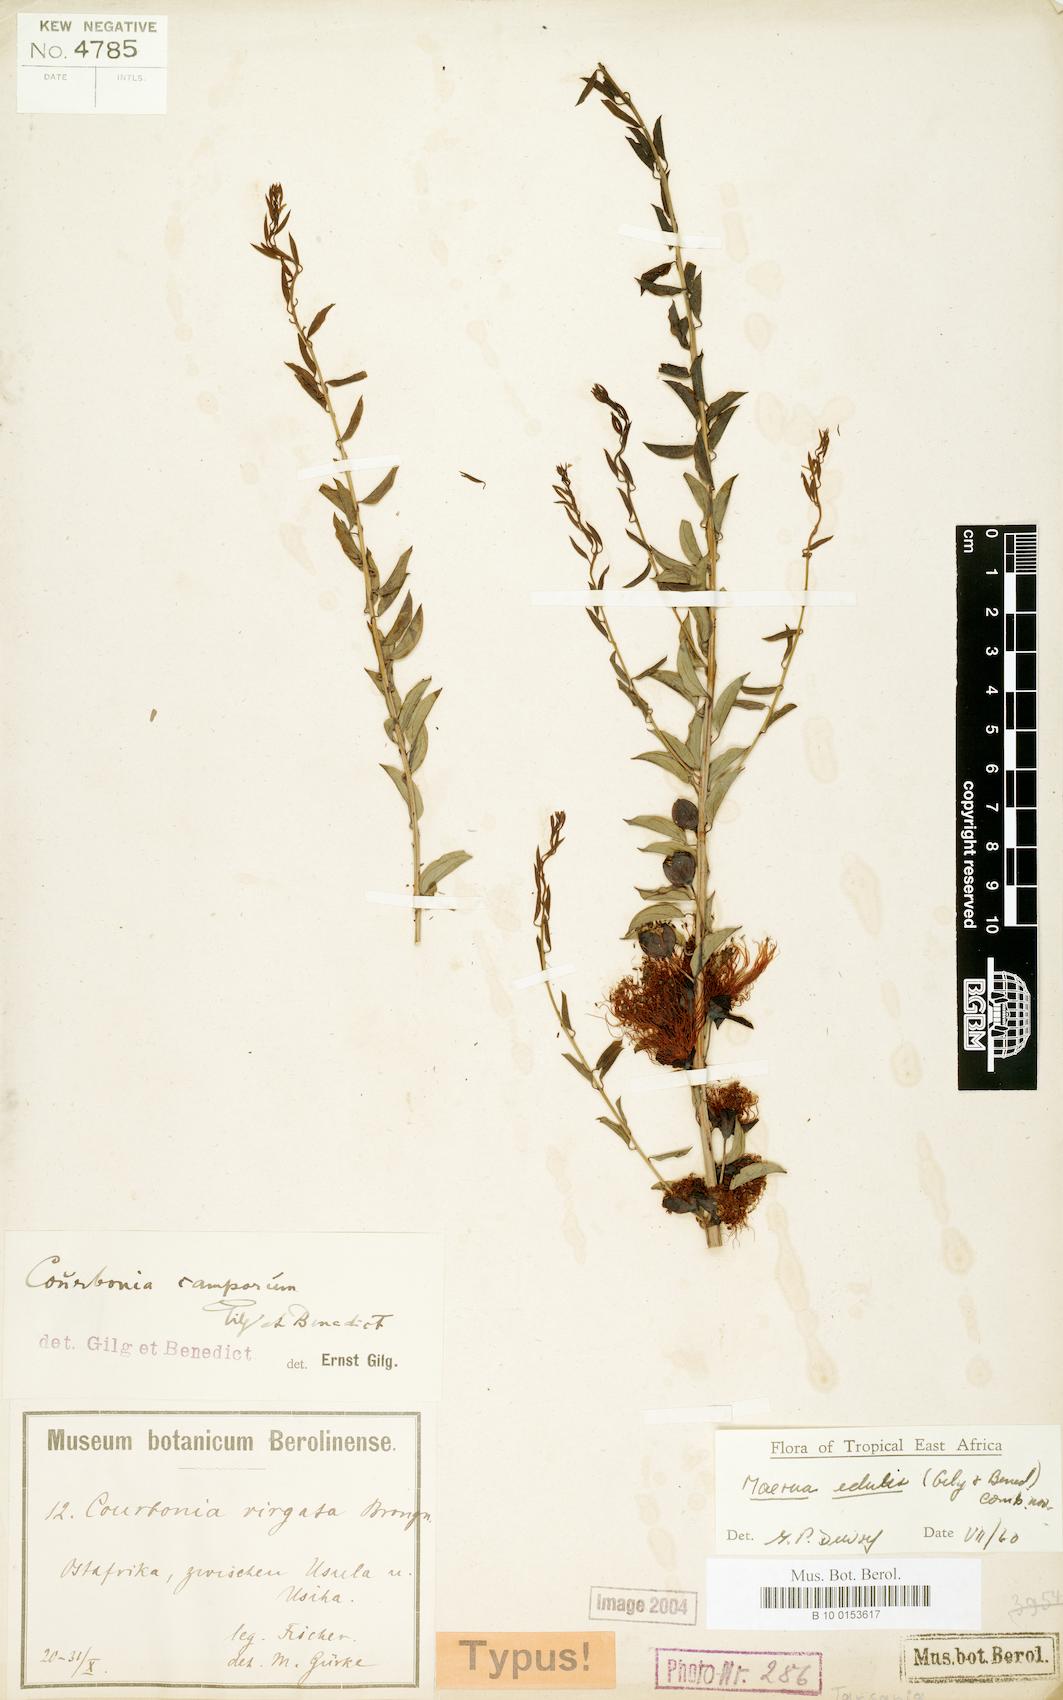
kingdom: Plantae
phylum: Tracheophyta
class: Magnoliopsida
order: Brassicales
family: Capparaceae
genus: Maerua
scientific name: Maerua edulis
